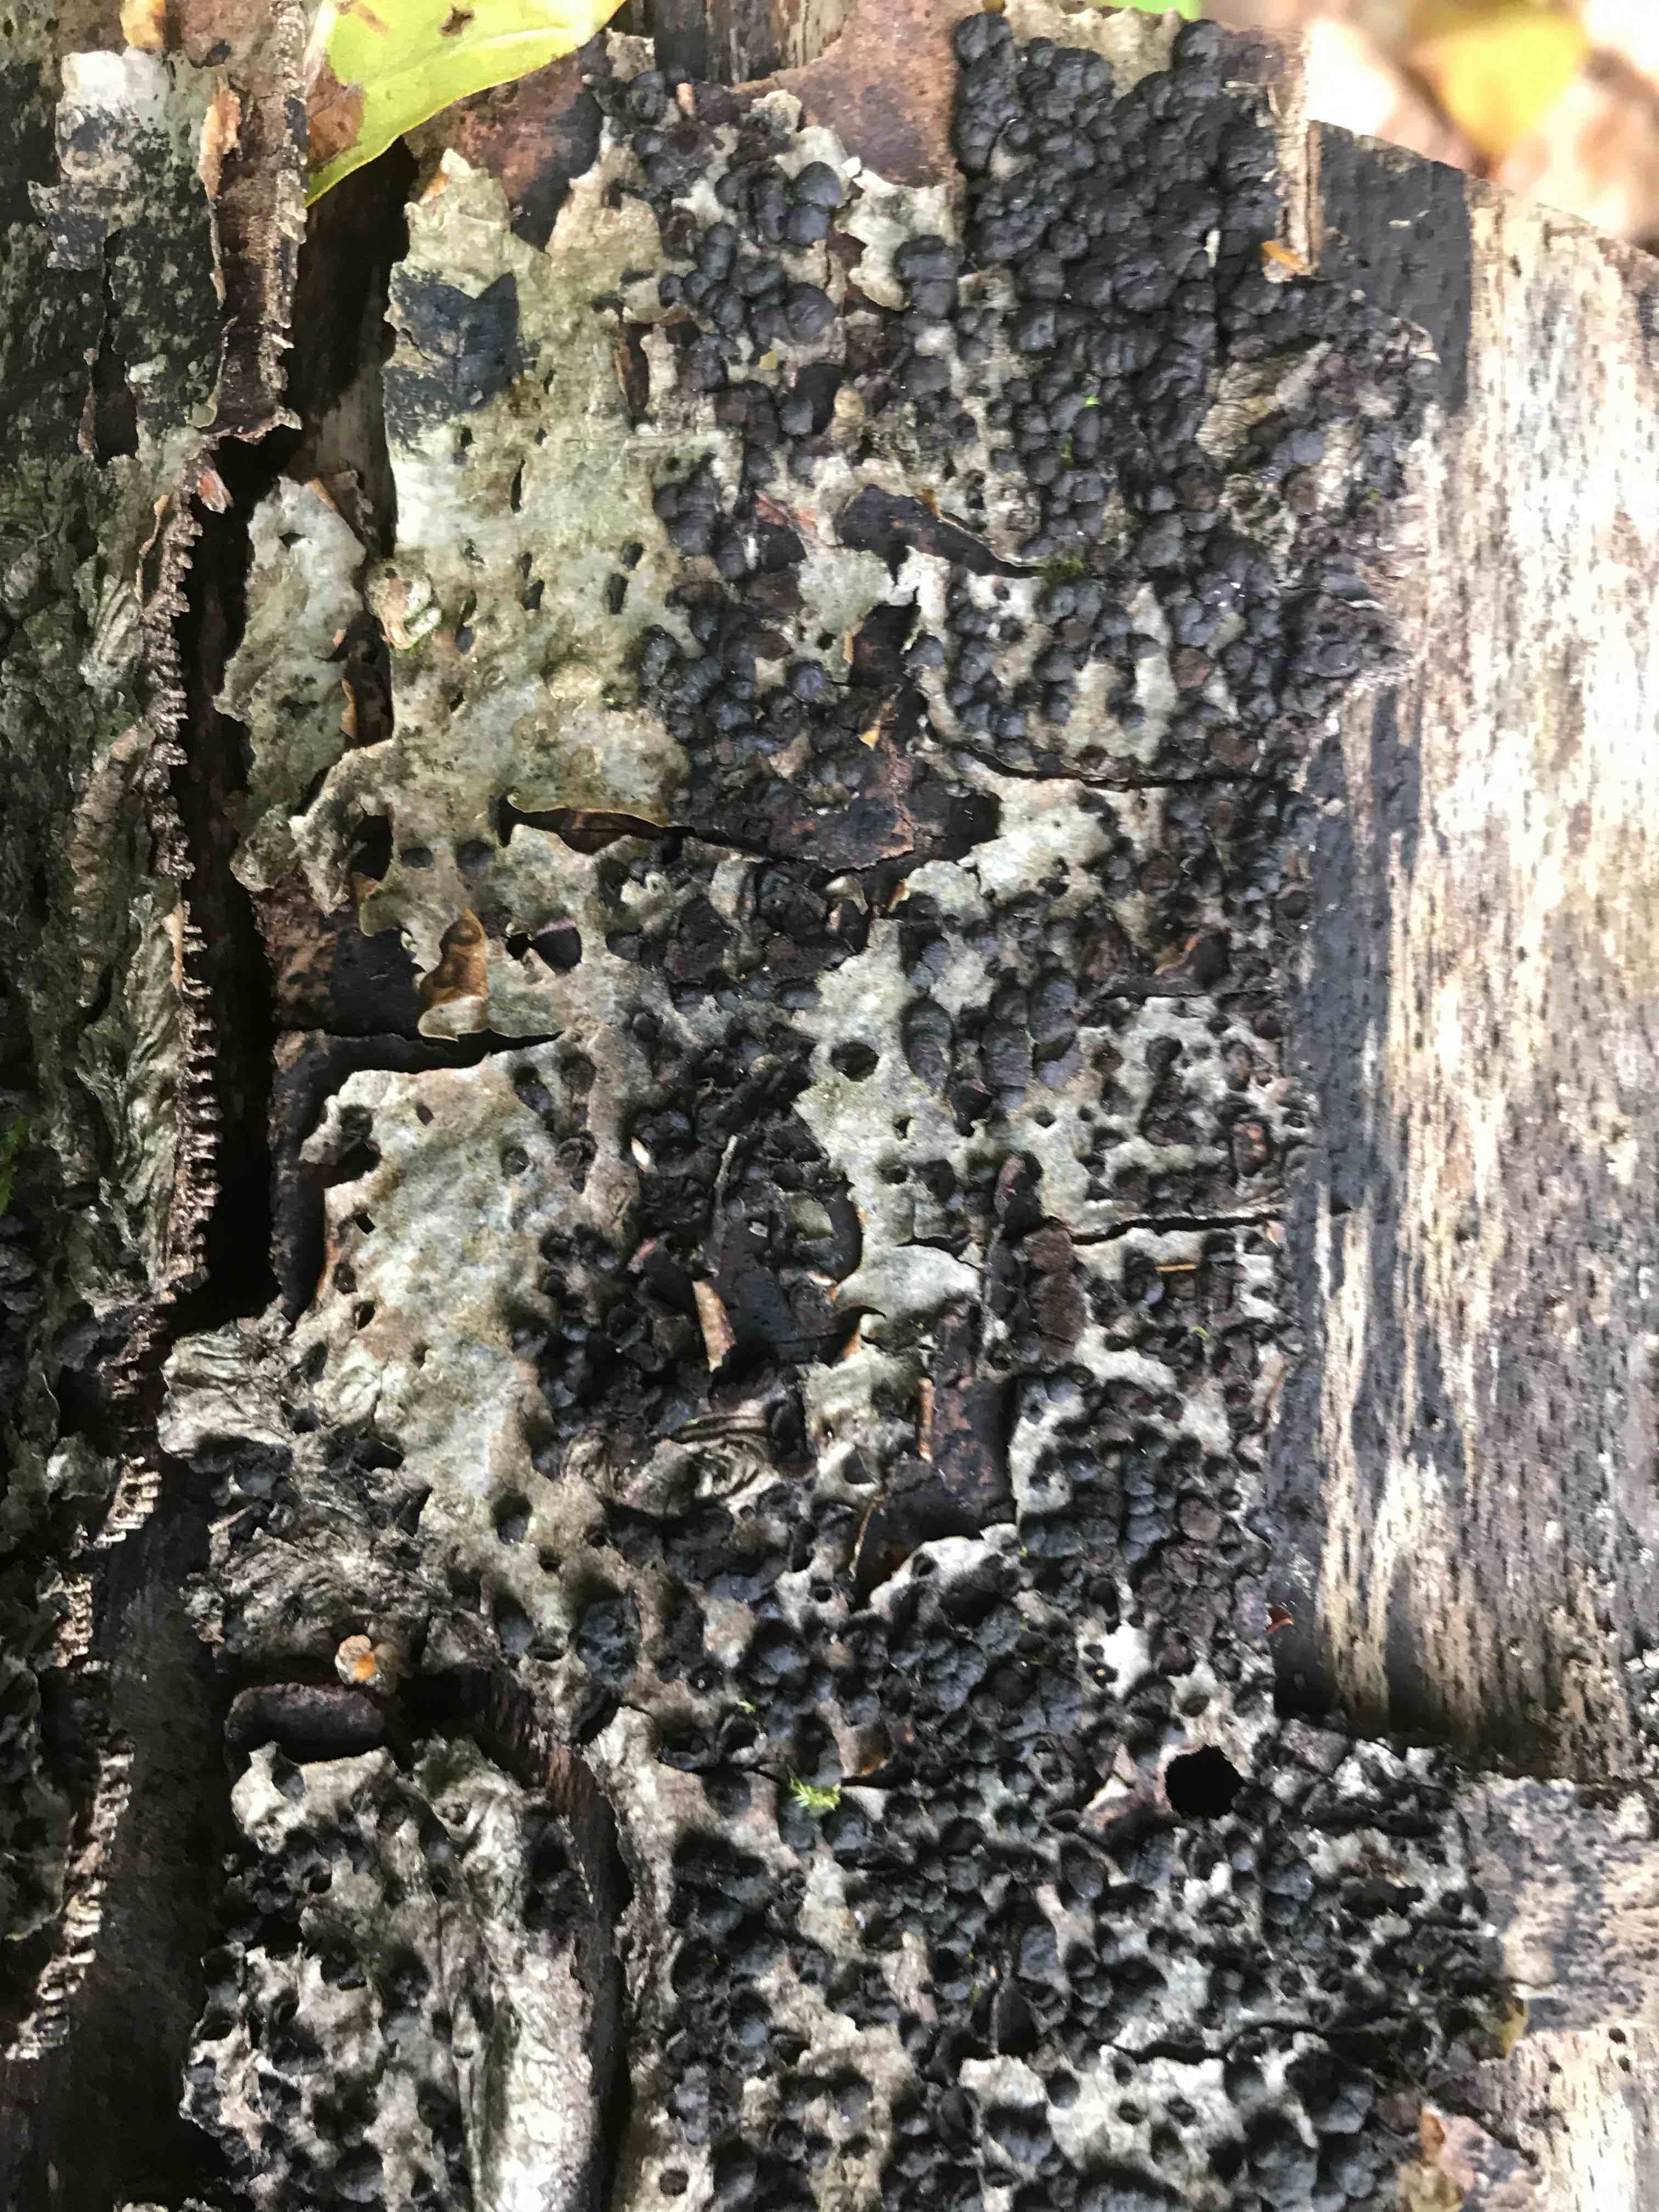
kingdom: Fungi
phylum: Ascomycota
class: Sordariomycetes
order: Xylariales
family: Hypoxylaceae
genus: Jackrogersella
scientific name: Jackrogersella cohaerens
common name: sammenflydende kulbær
